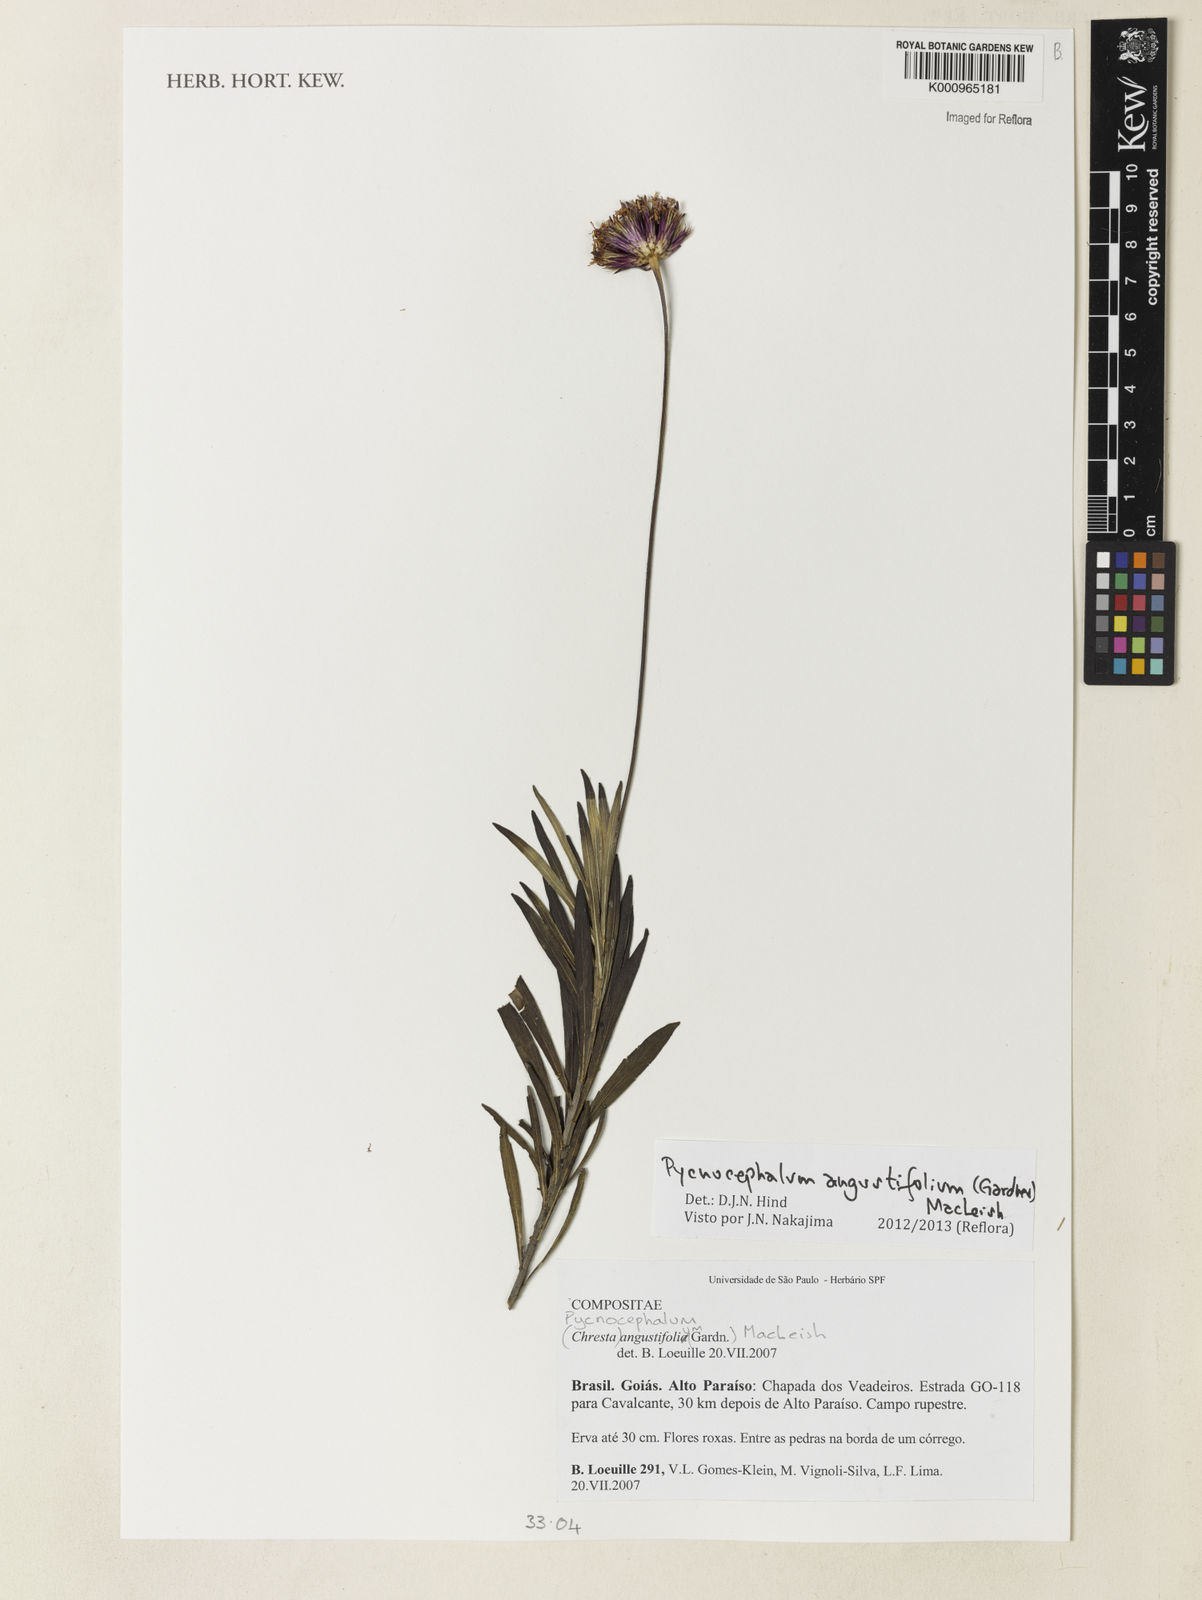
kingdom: Plantae
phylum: Tracheophyta
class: Magnoliopsida
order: Asterales
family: Asteraceae
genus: Chresta
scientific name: Chresta angustifolia
